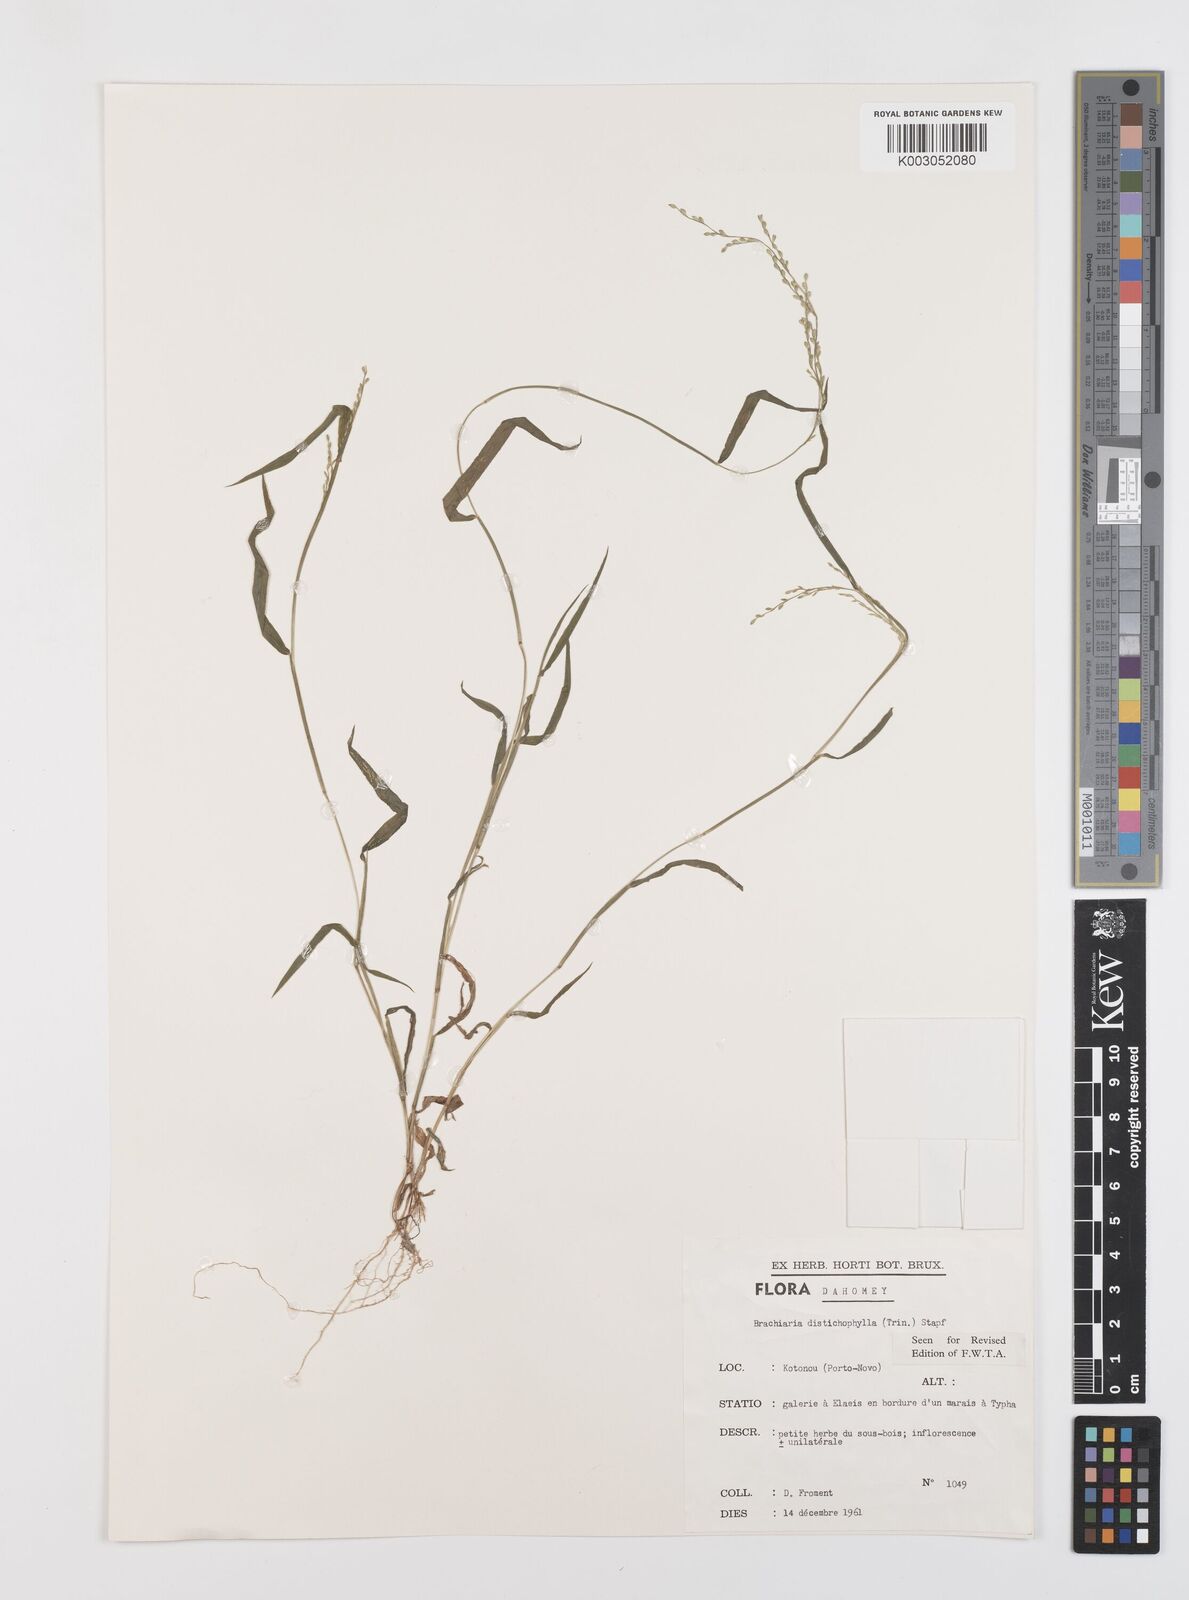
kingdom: Plantae
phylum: Tracheophyta
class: Liliopsida
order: Poales
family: Poaceae
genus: Urochloa
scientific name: Urochloa villosa
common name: Hairy signalgrass
